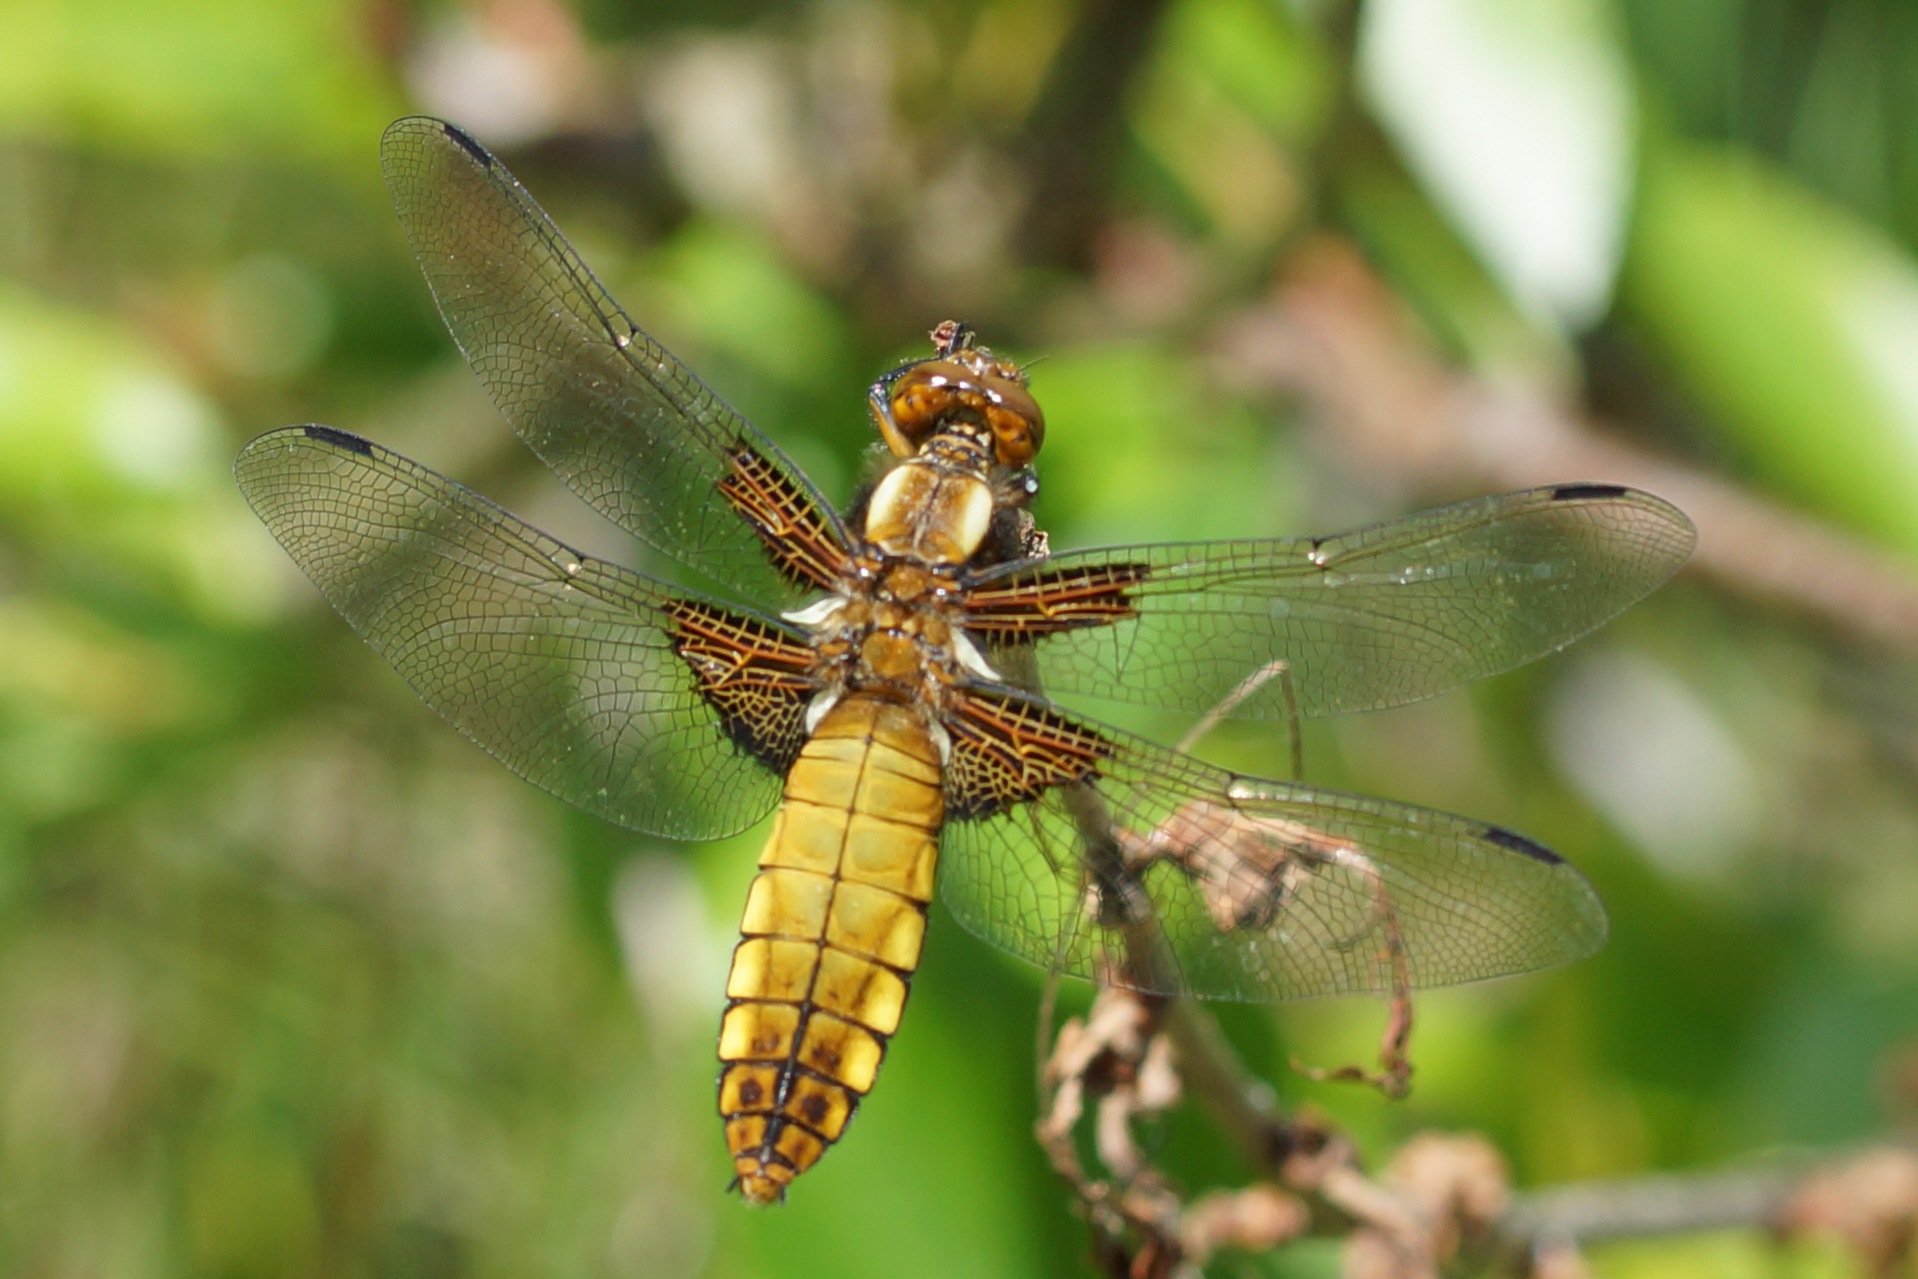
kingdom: Animalia
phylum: Arthropoda
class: Insecta
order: Odonata
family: Libellulidae
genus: Libellula
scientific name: Libellula depressa
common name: Blå libel
